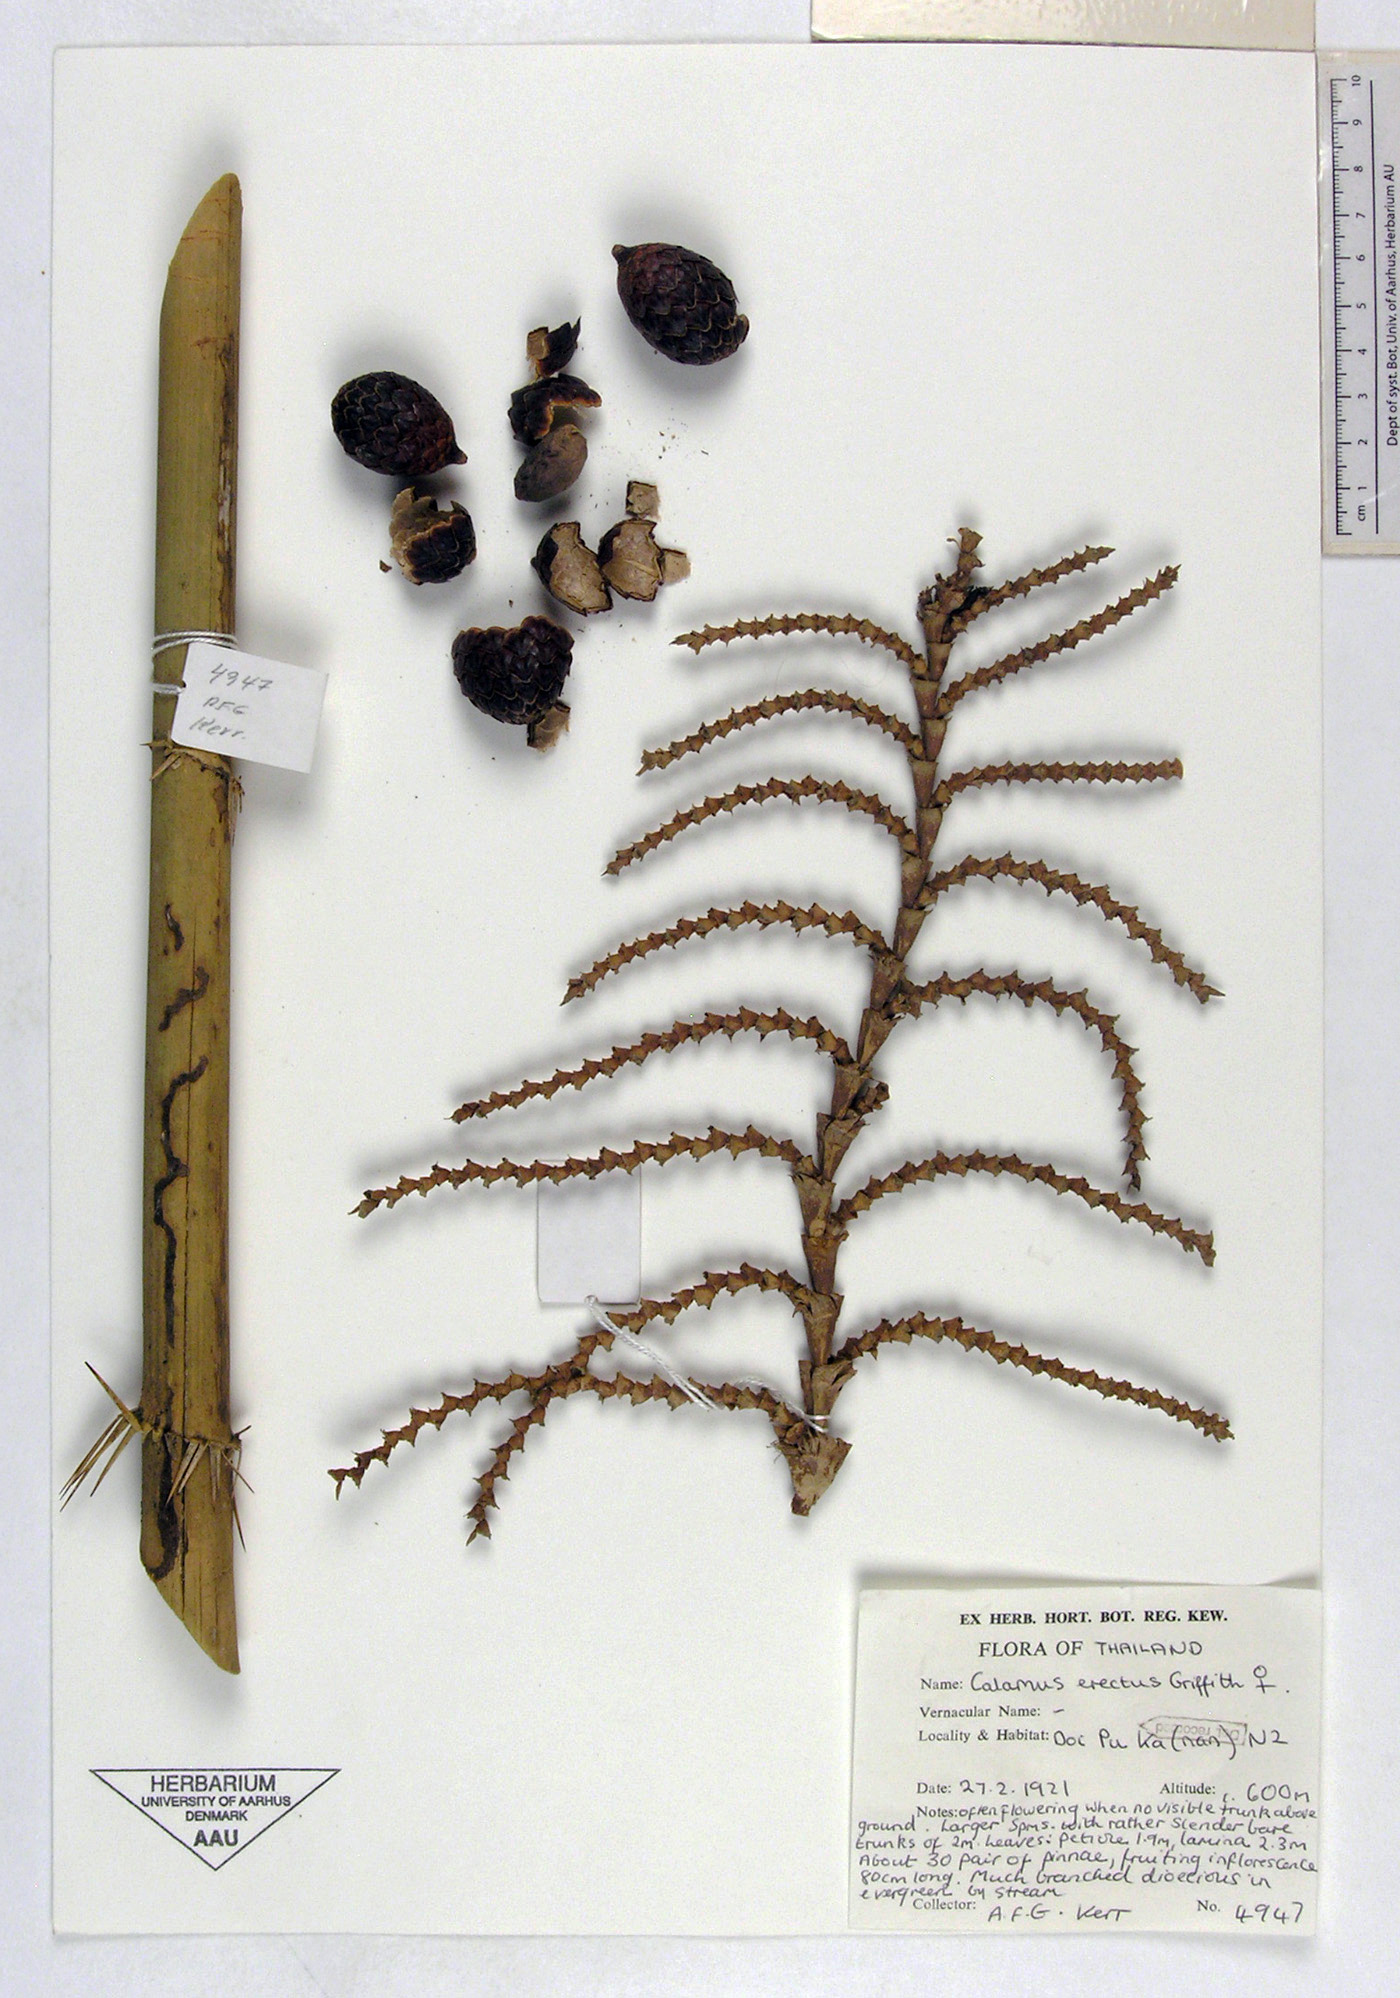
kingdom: Plantae
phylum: Tracheophyta
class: Liliopsida
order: Arecales
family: Arecaceae
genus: Calamus
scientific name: Calamus erectus
